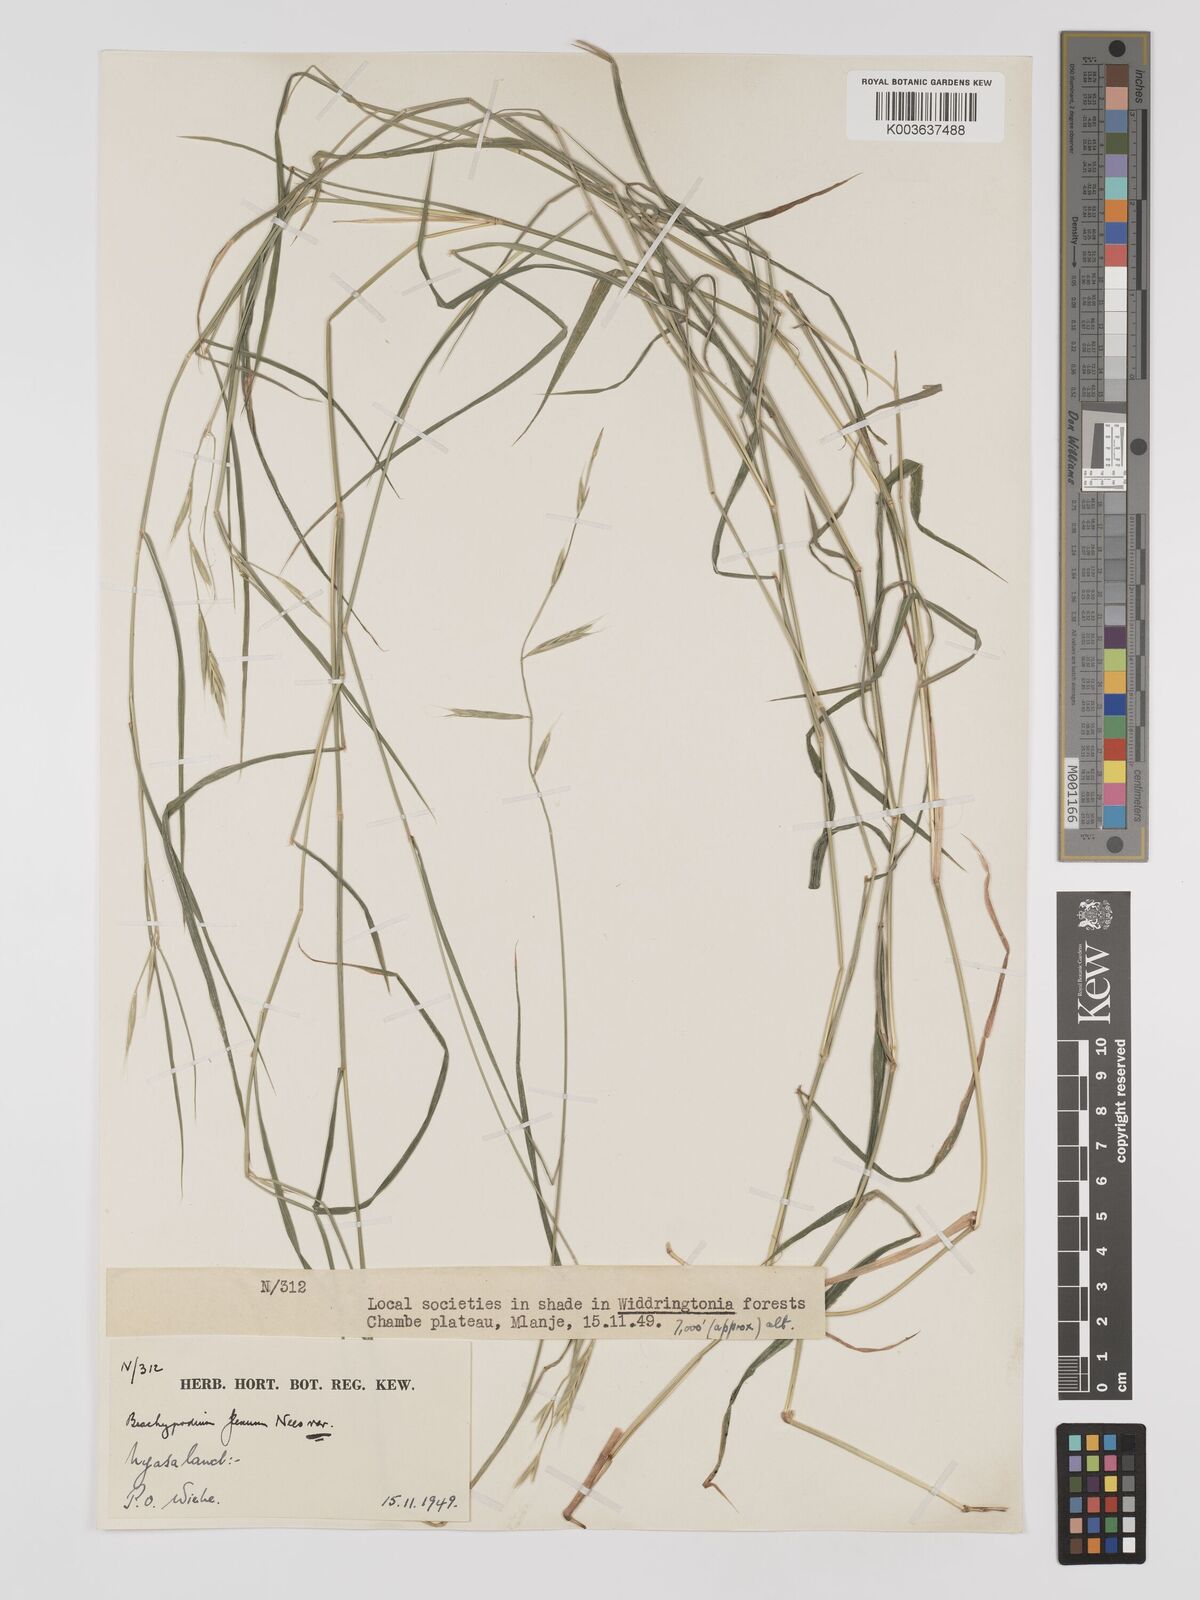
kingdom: Plantae
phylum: Tracheophyta
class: Liliopsida
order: Poales
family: Poaceae
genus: Brachypodium
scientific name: Brachypodium flexum
